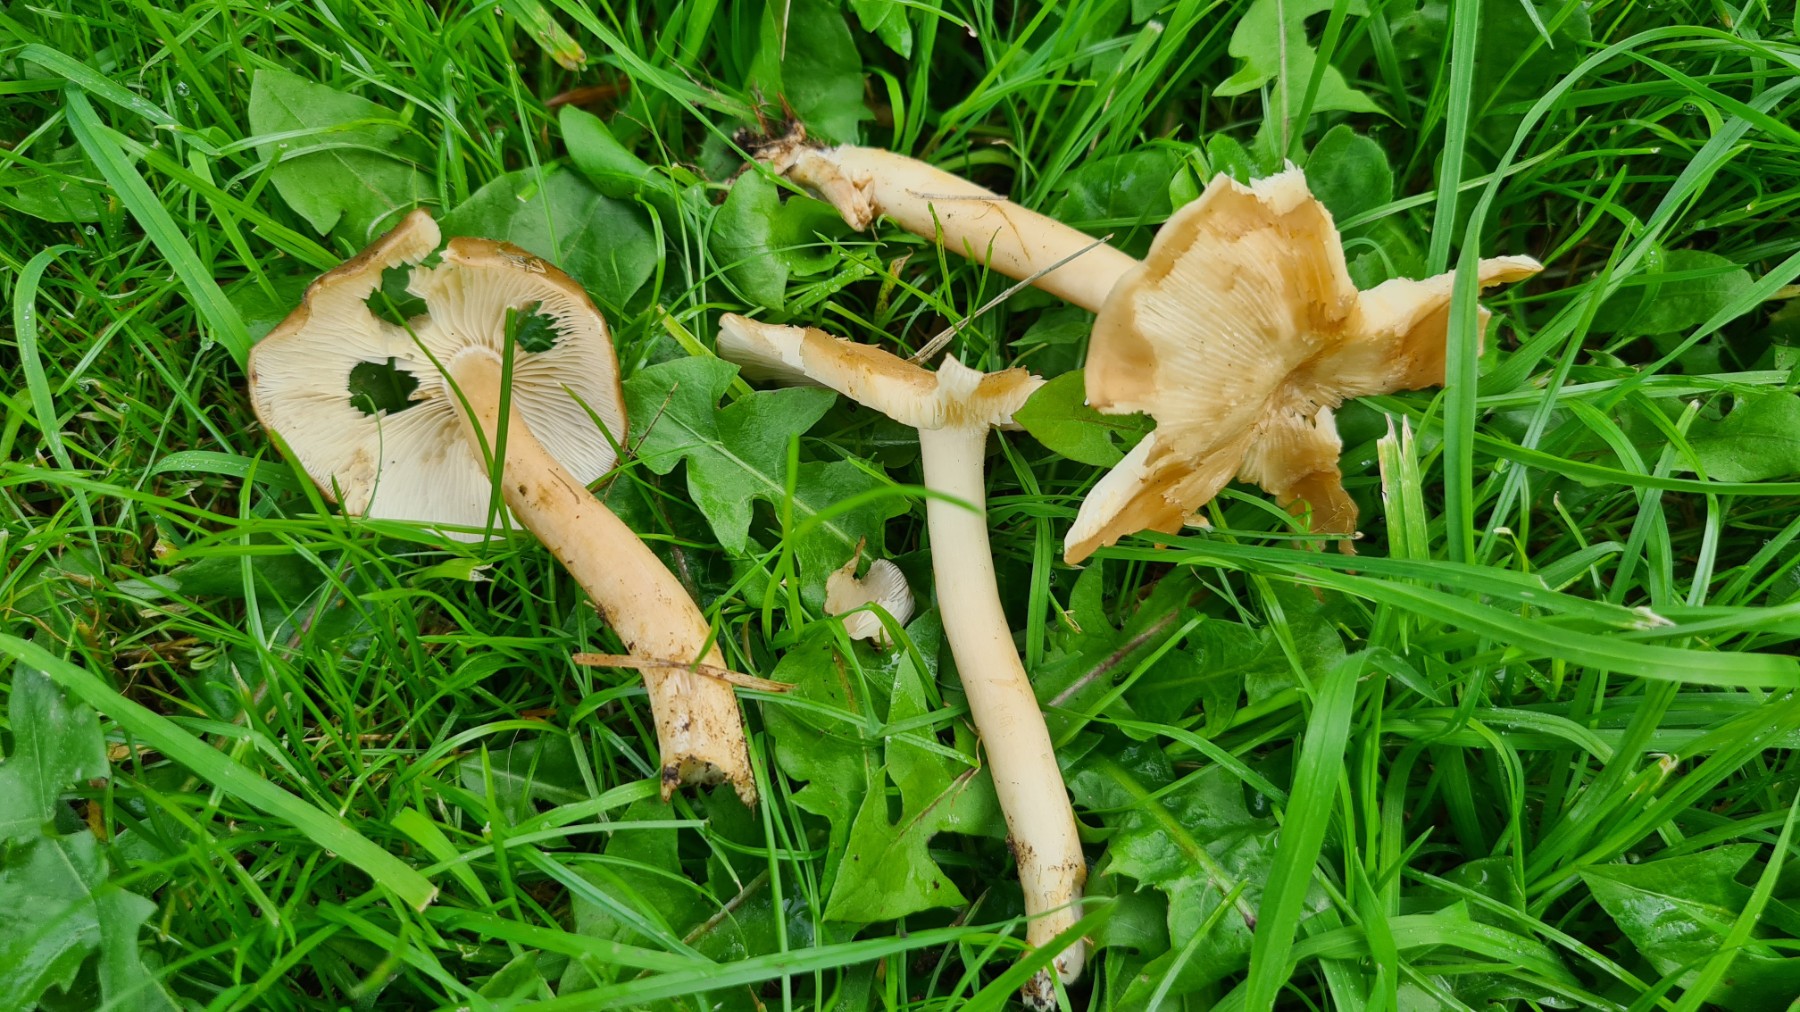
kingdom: Fungi
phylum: Basidiomycota
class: Agaricomycetes
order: Agaricales
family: Lyophyllaceae
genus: Lyophyllum
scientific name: Lyophyllum decastes
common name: Clustered domecap
